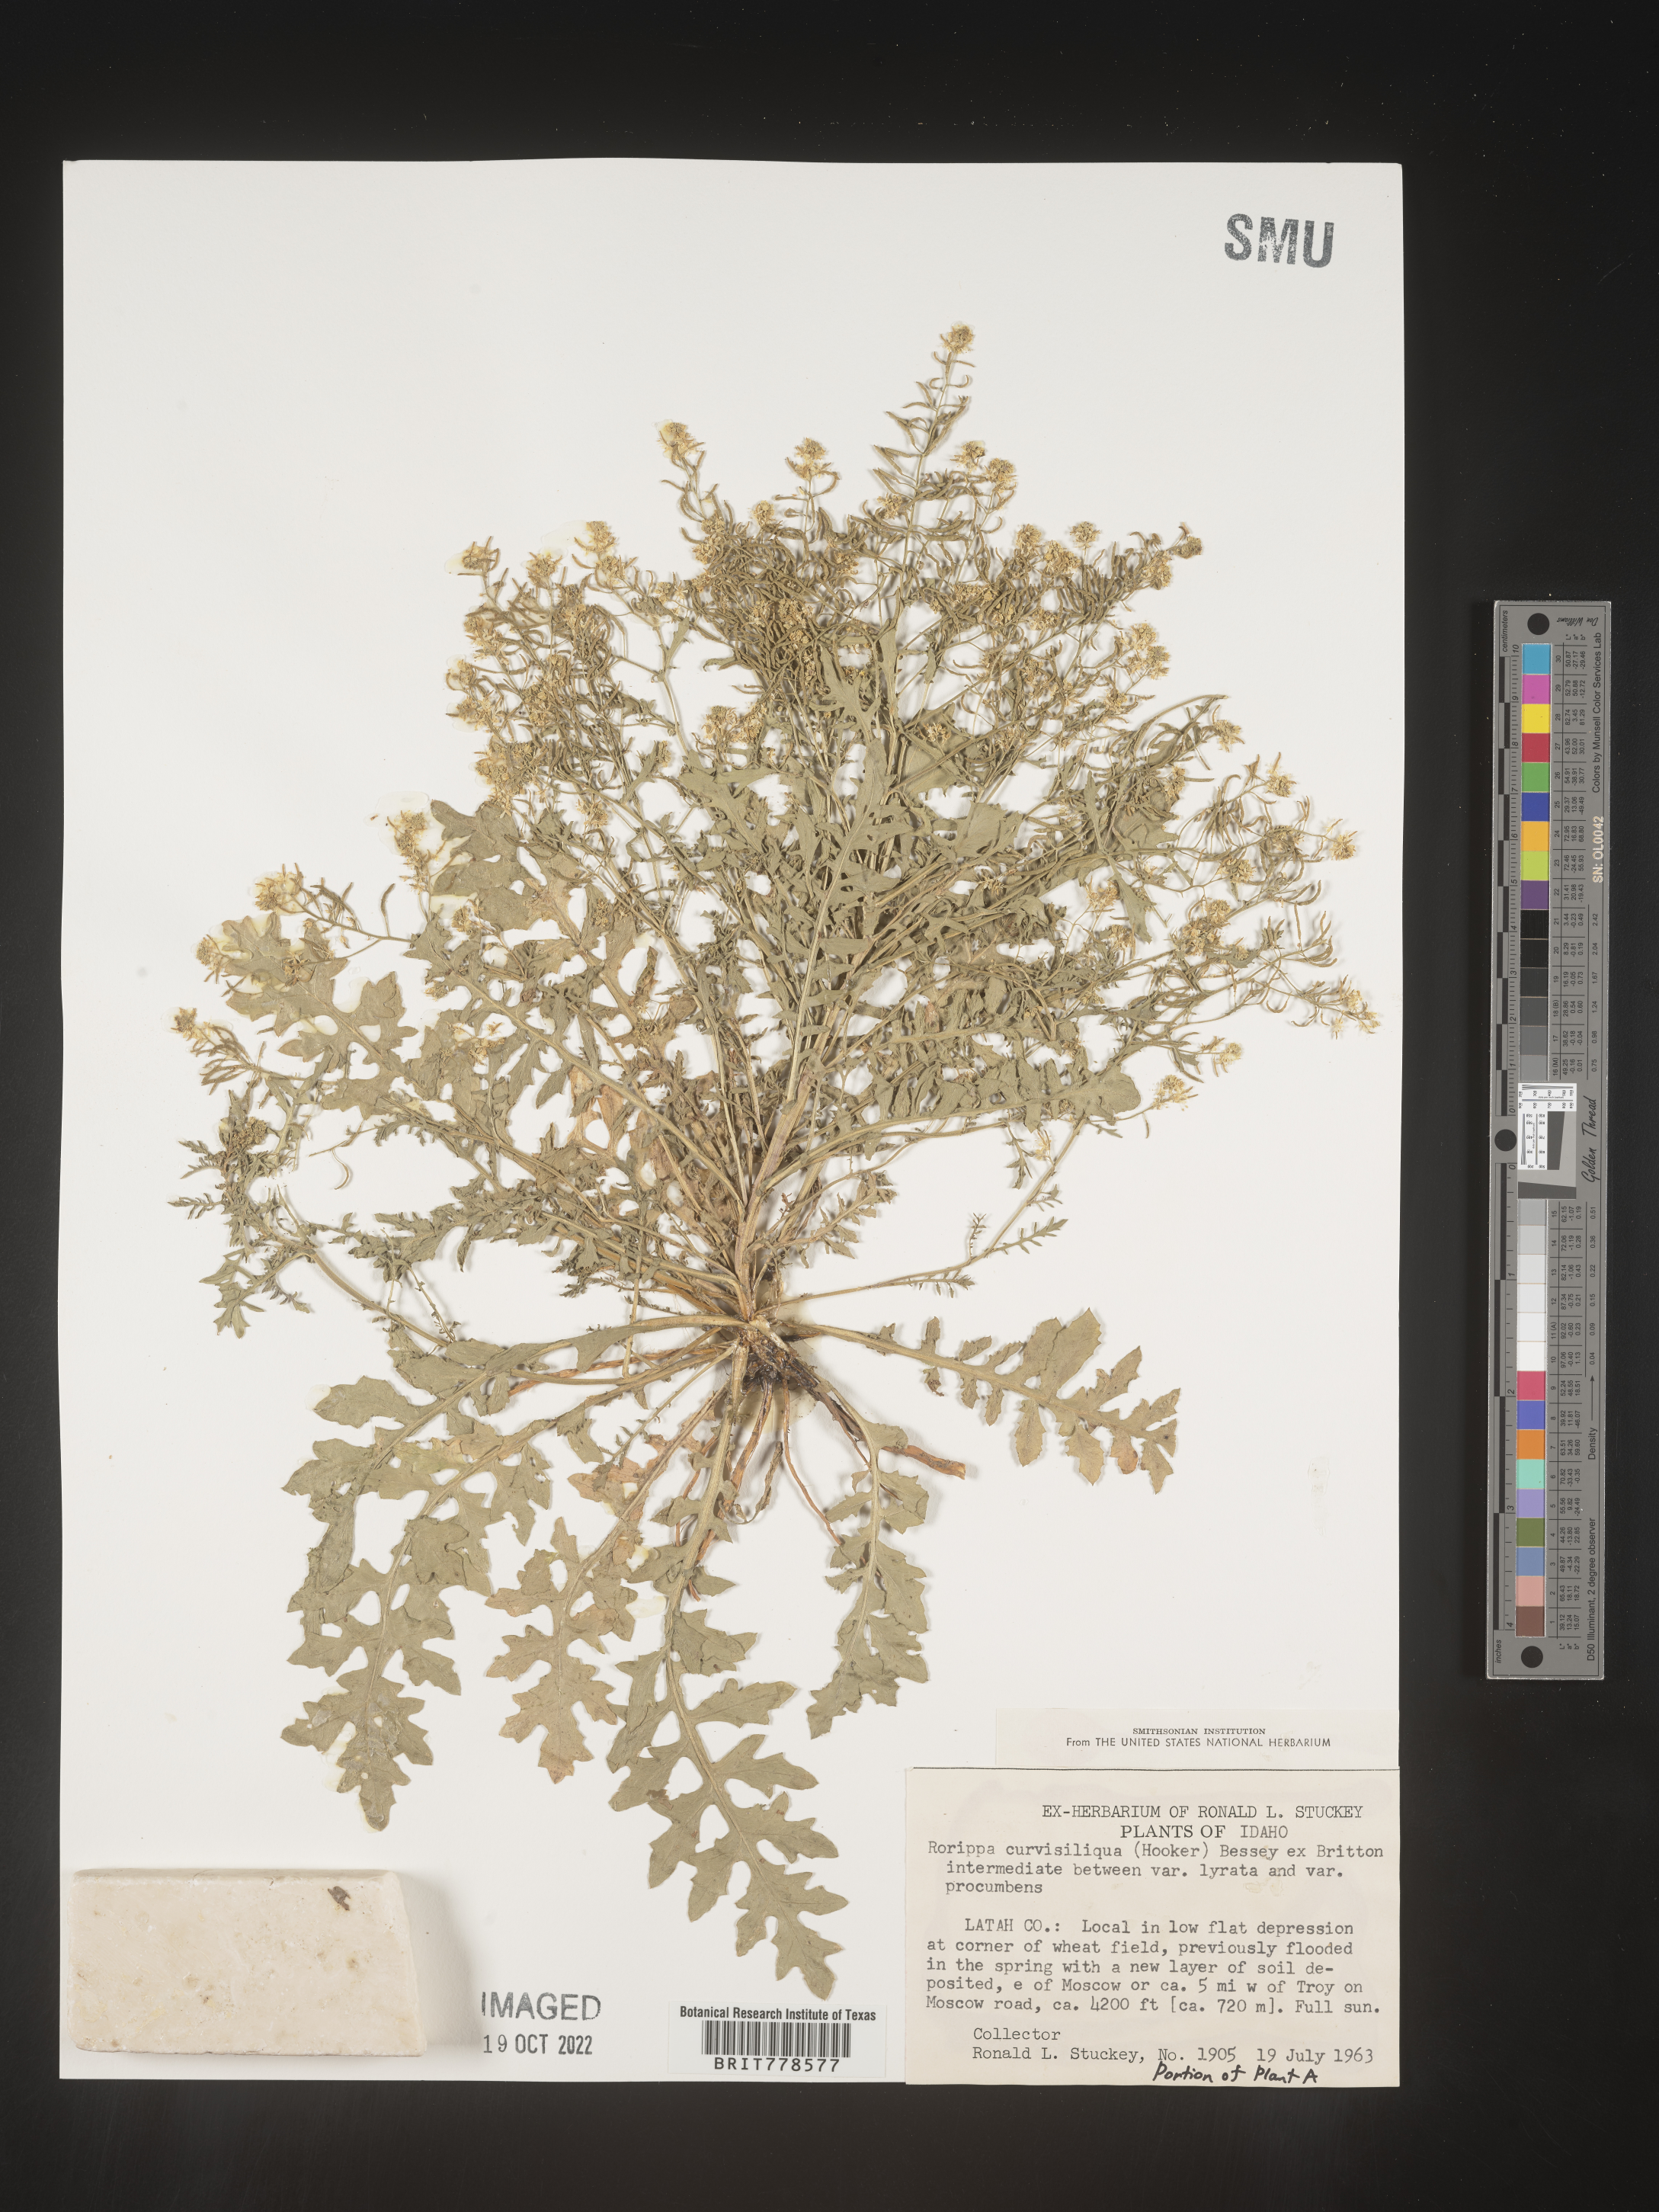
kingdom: Plantae
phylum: Tracheophyta
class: Magnoliopsida
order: Brassicales
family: Brassicaceae
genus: Rorippa
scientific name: Rorippa
